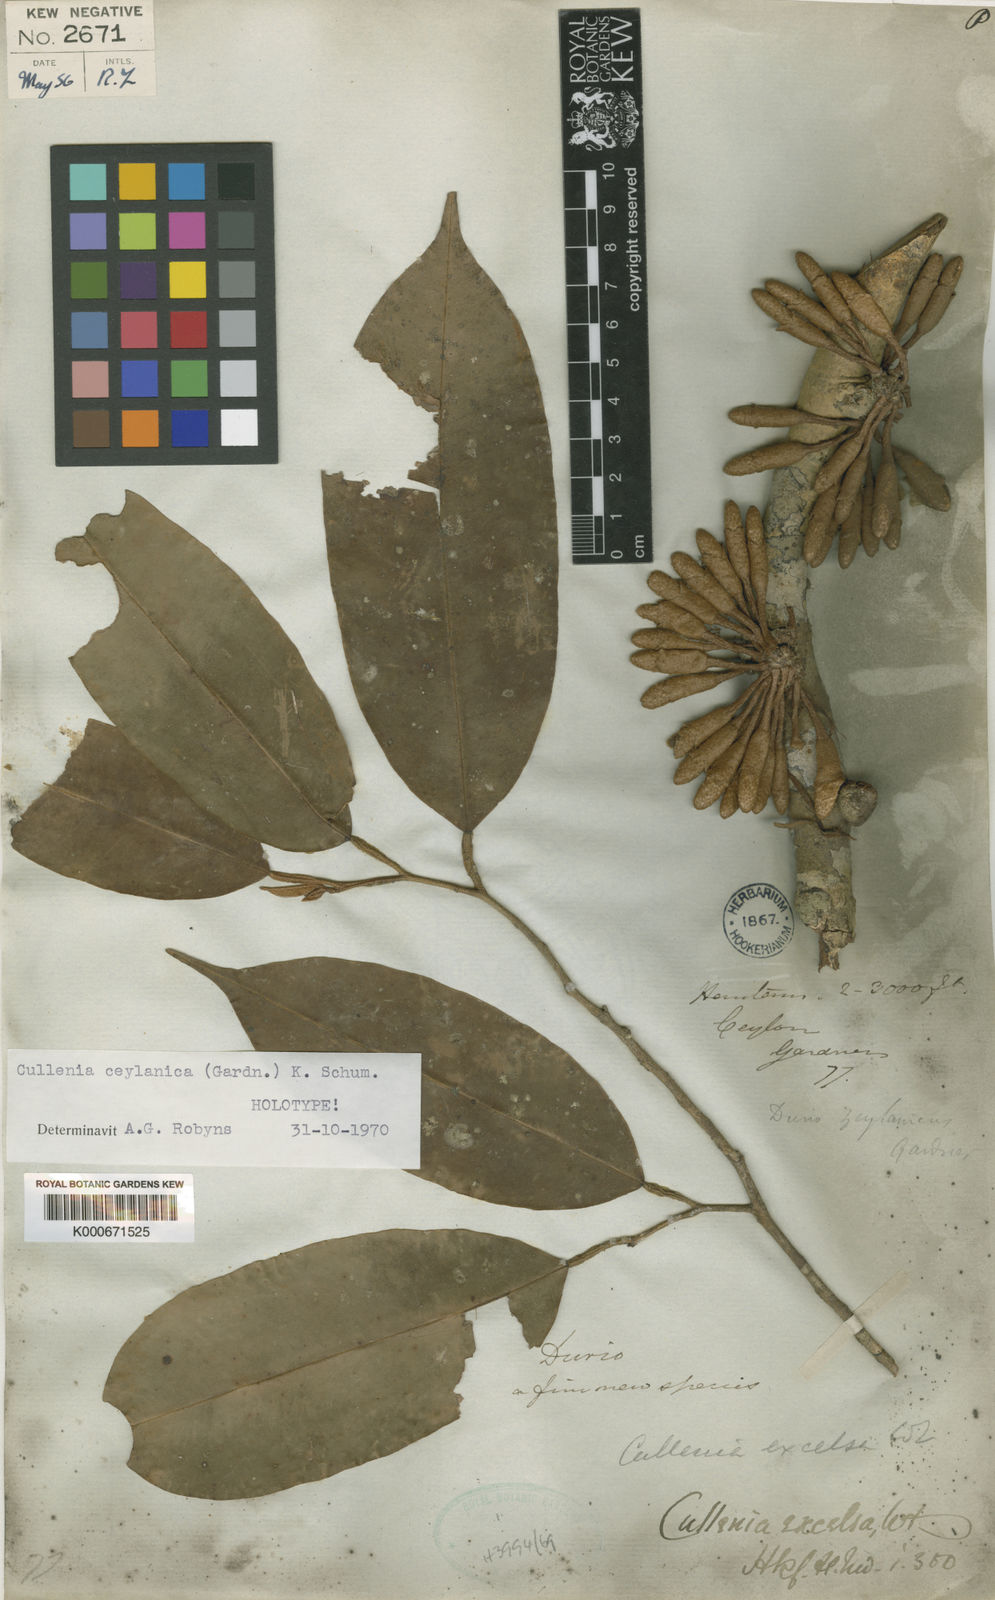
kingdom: Plantae
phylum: Tracheophyta
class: Magnoliopsida
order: Malvales
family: Malvaceae
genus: Cullenia
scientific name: Cullenia ceylanica
